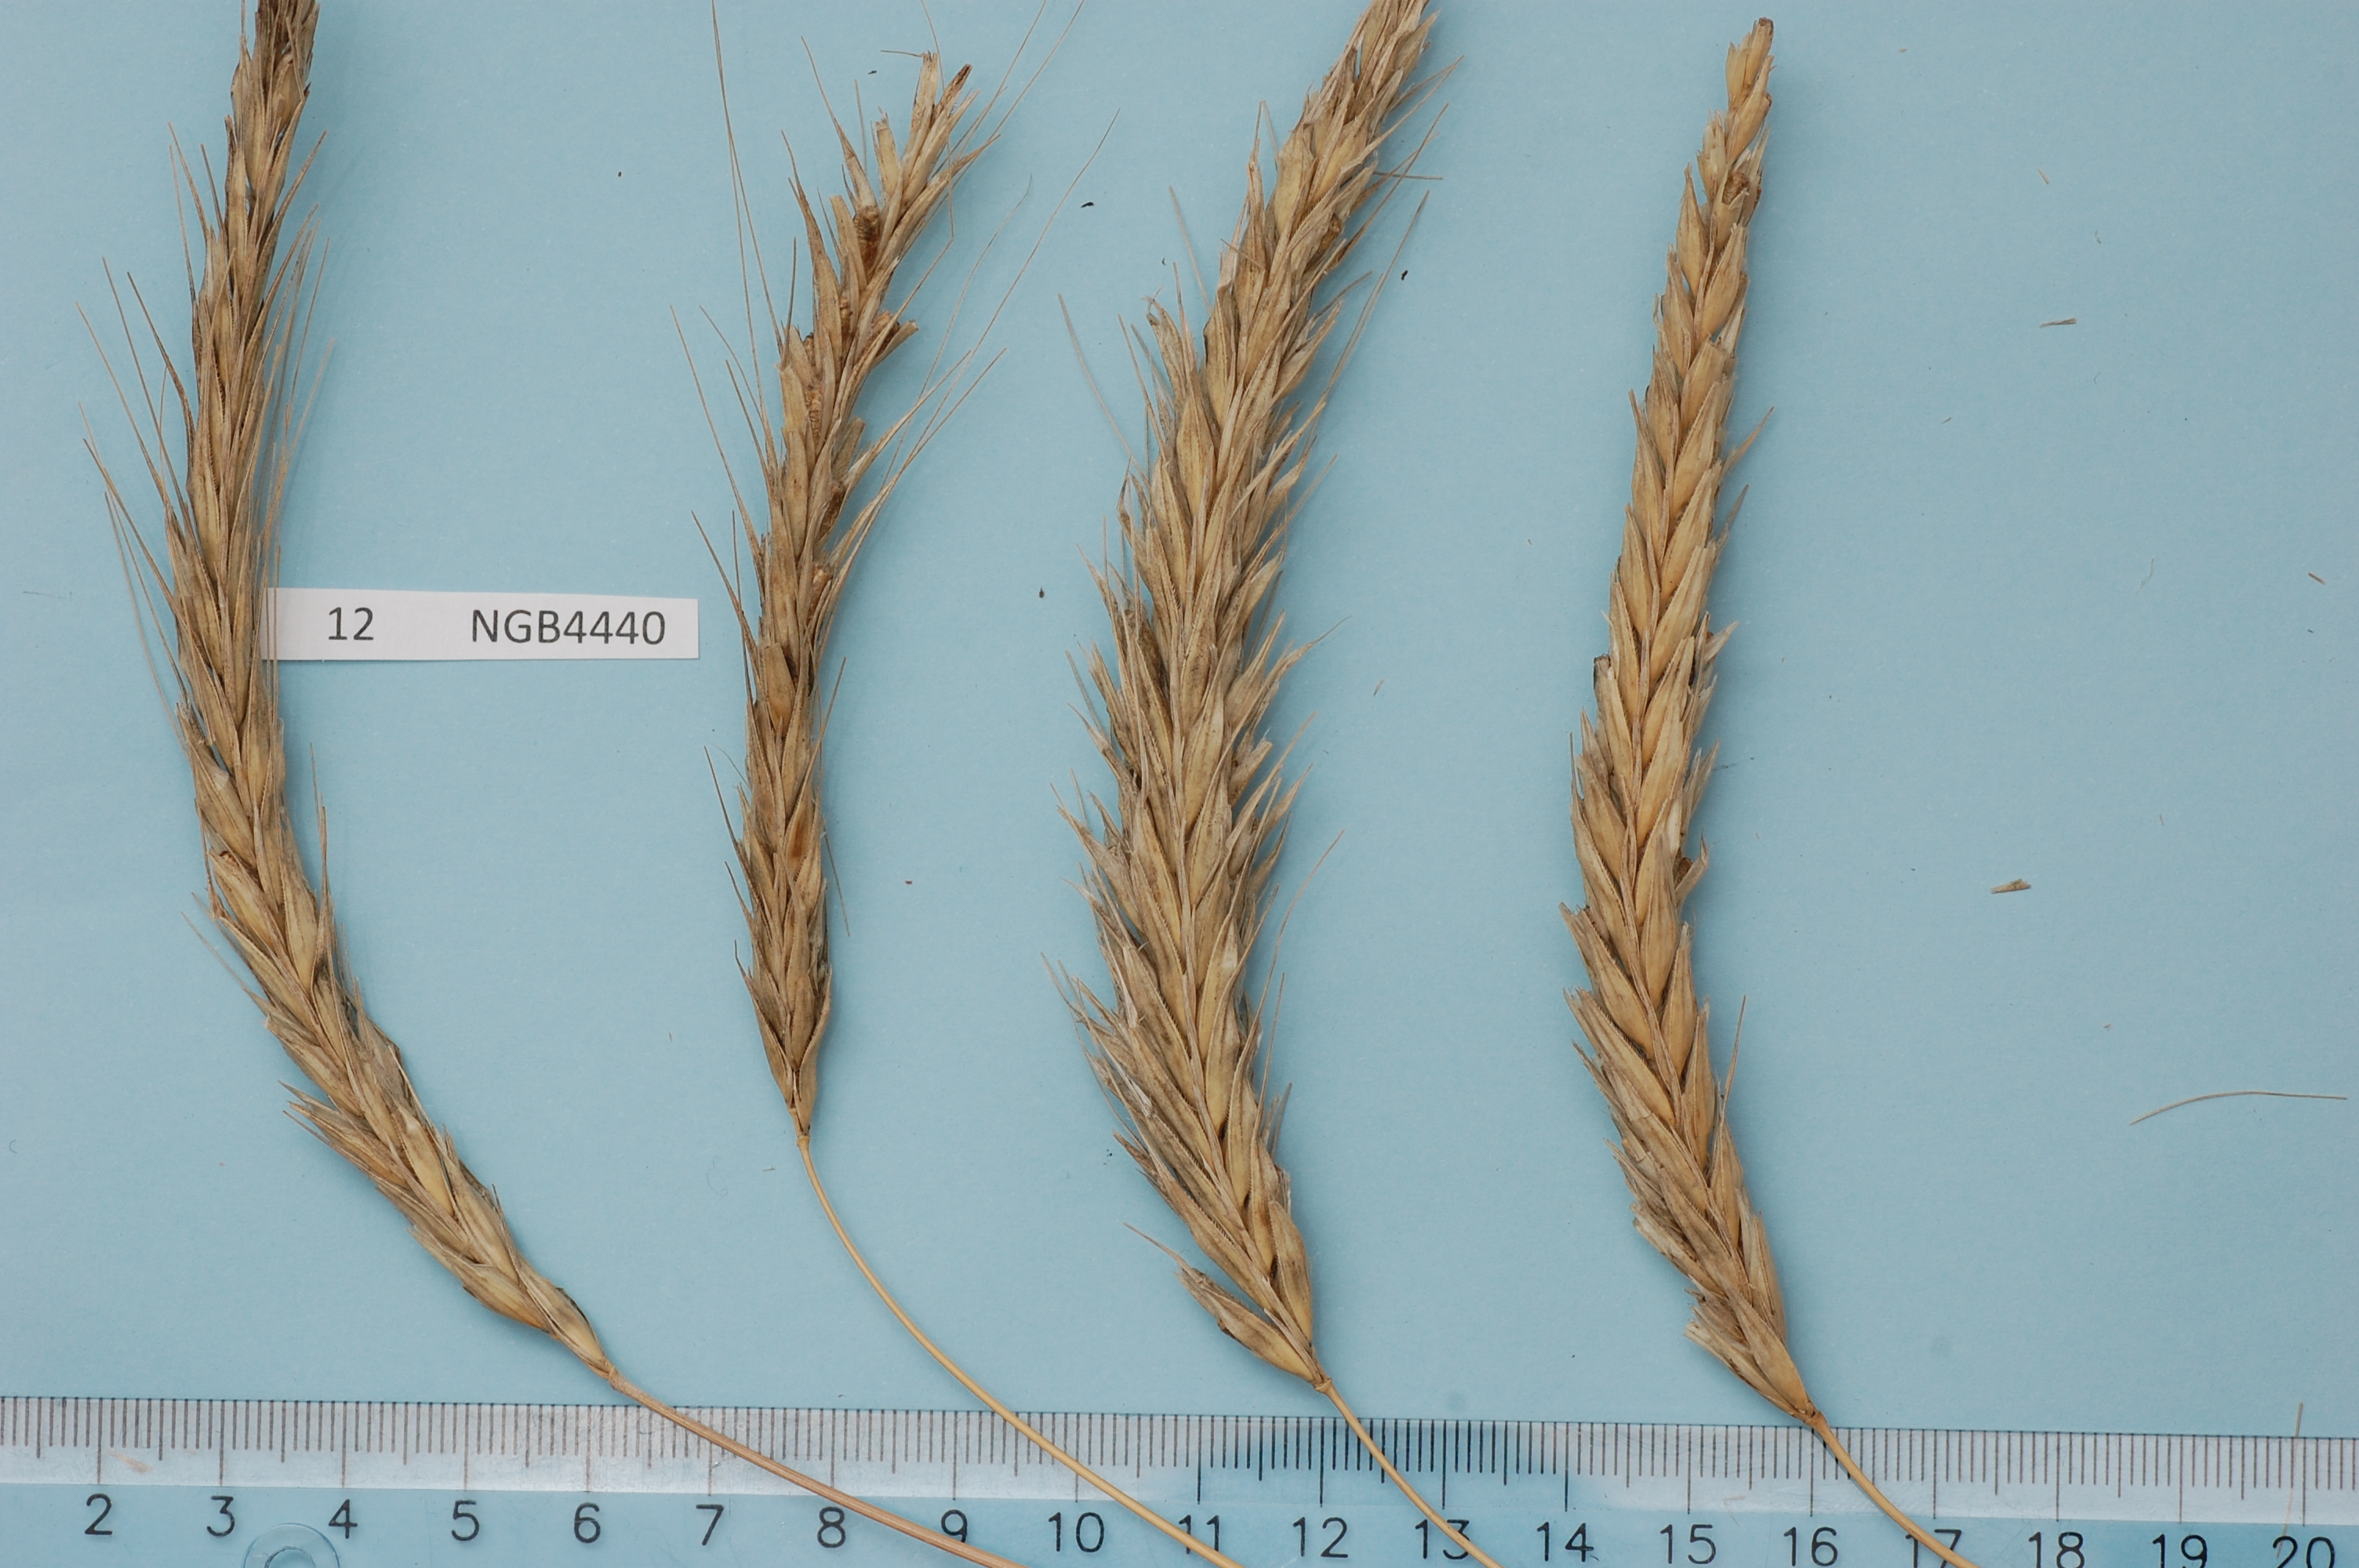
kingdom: Plantae
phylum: Tracheophyta
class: Liliopsida
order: Poales
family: Poaceae
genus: Secale
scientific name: Secale cereale
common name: Rye
